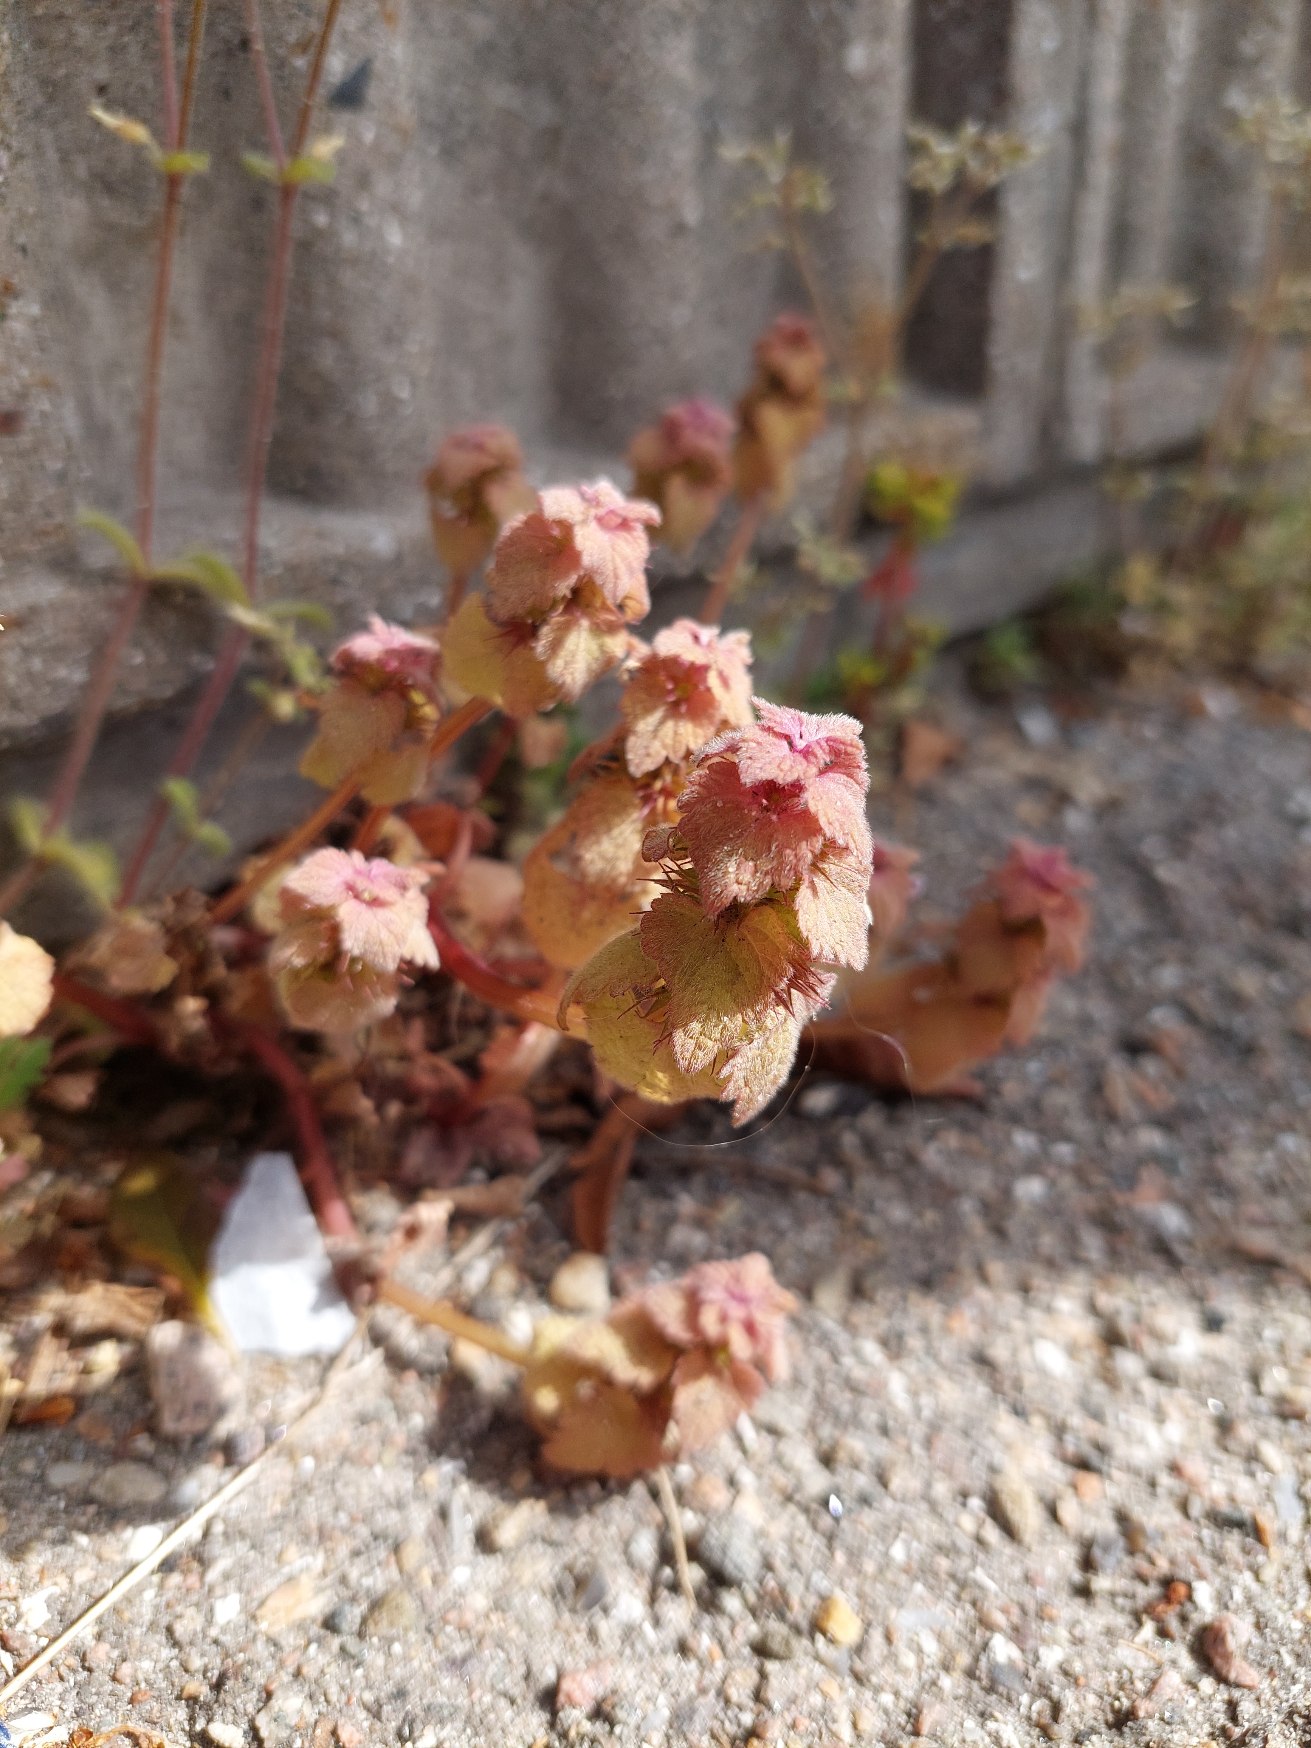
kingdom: Plantae
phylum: Tracheophyta
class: Magnoliopsida
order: Lamiales
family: Lamiaceae
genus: Lamium
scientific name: Lamium purpureum
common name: Rød tvetand
